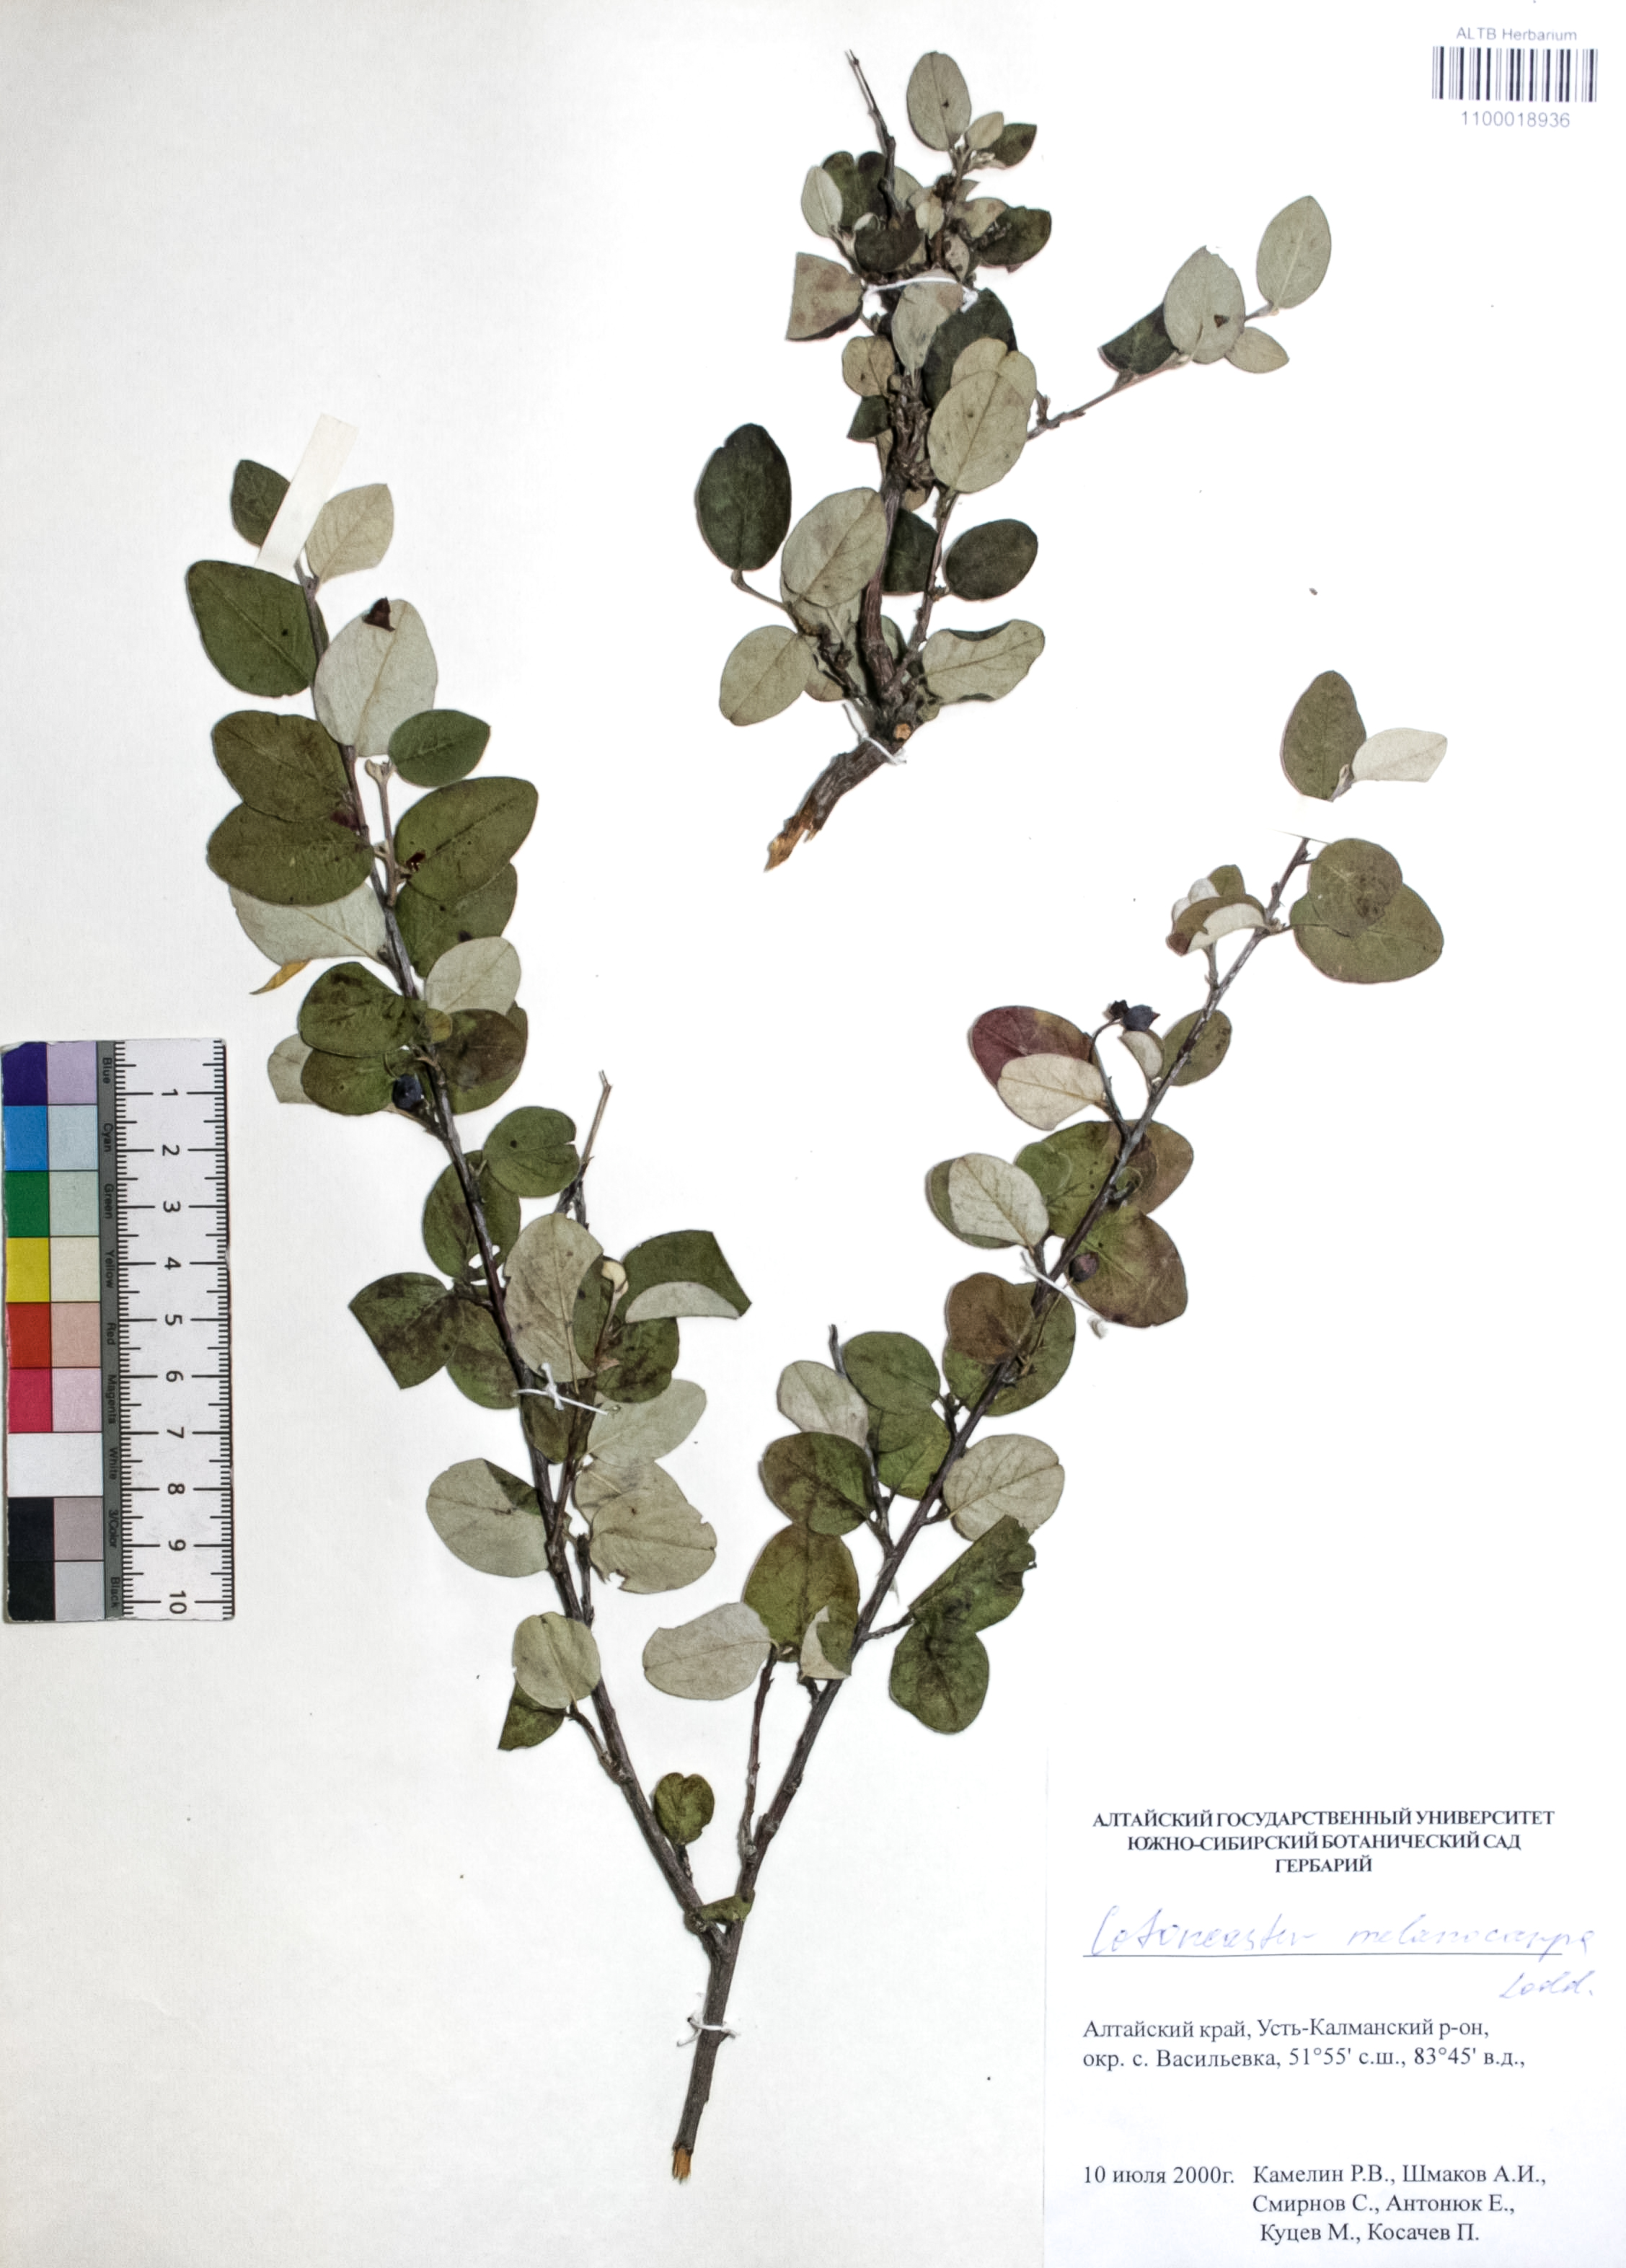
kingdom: Plantae
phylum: Tracheophyta
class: Magnoliopsida
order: Rosales
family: Rosaceae
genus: Cotoneaster
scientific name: Cotoneaster niger
